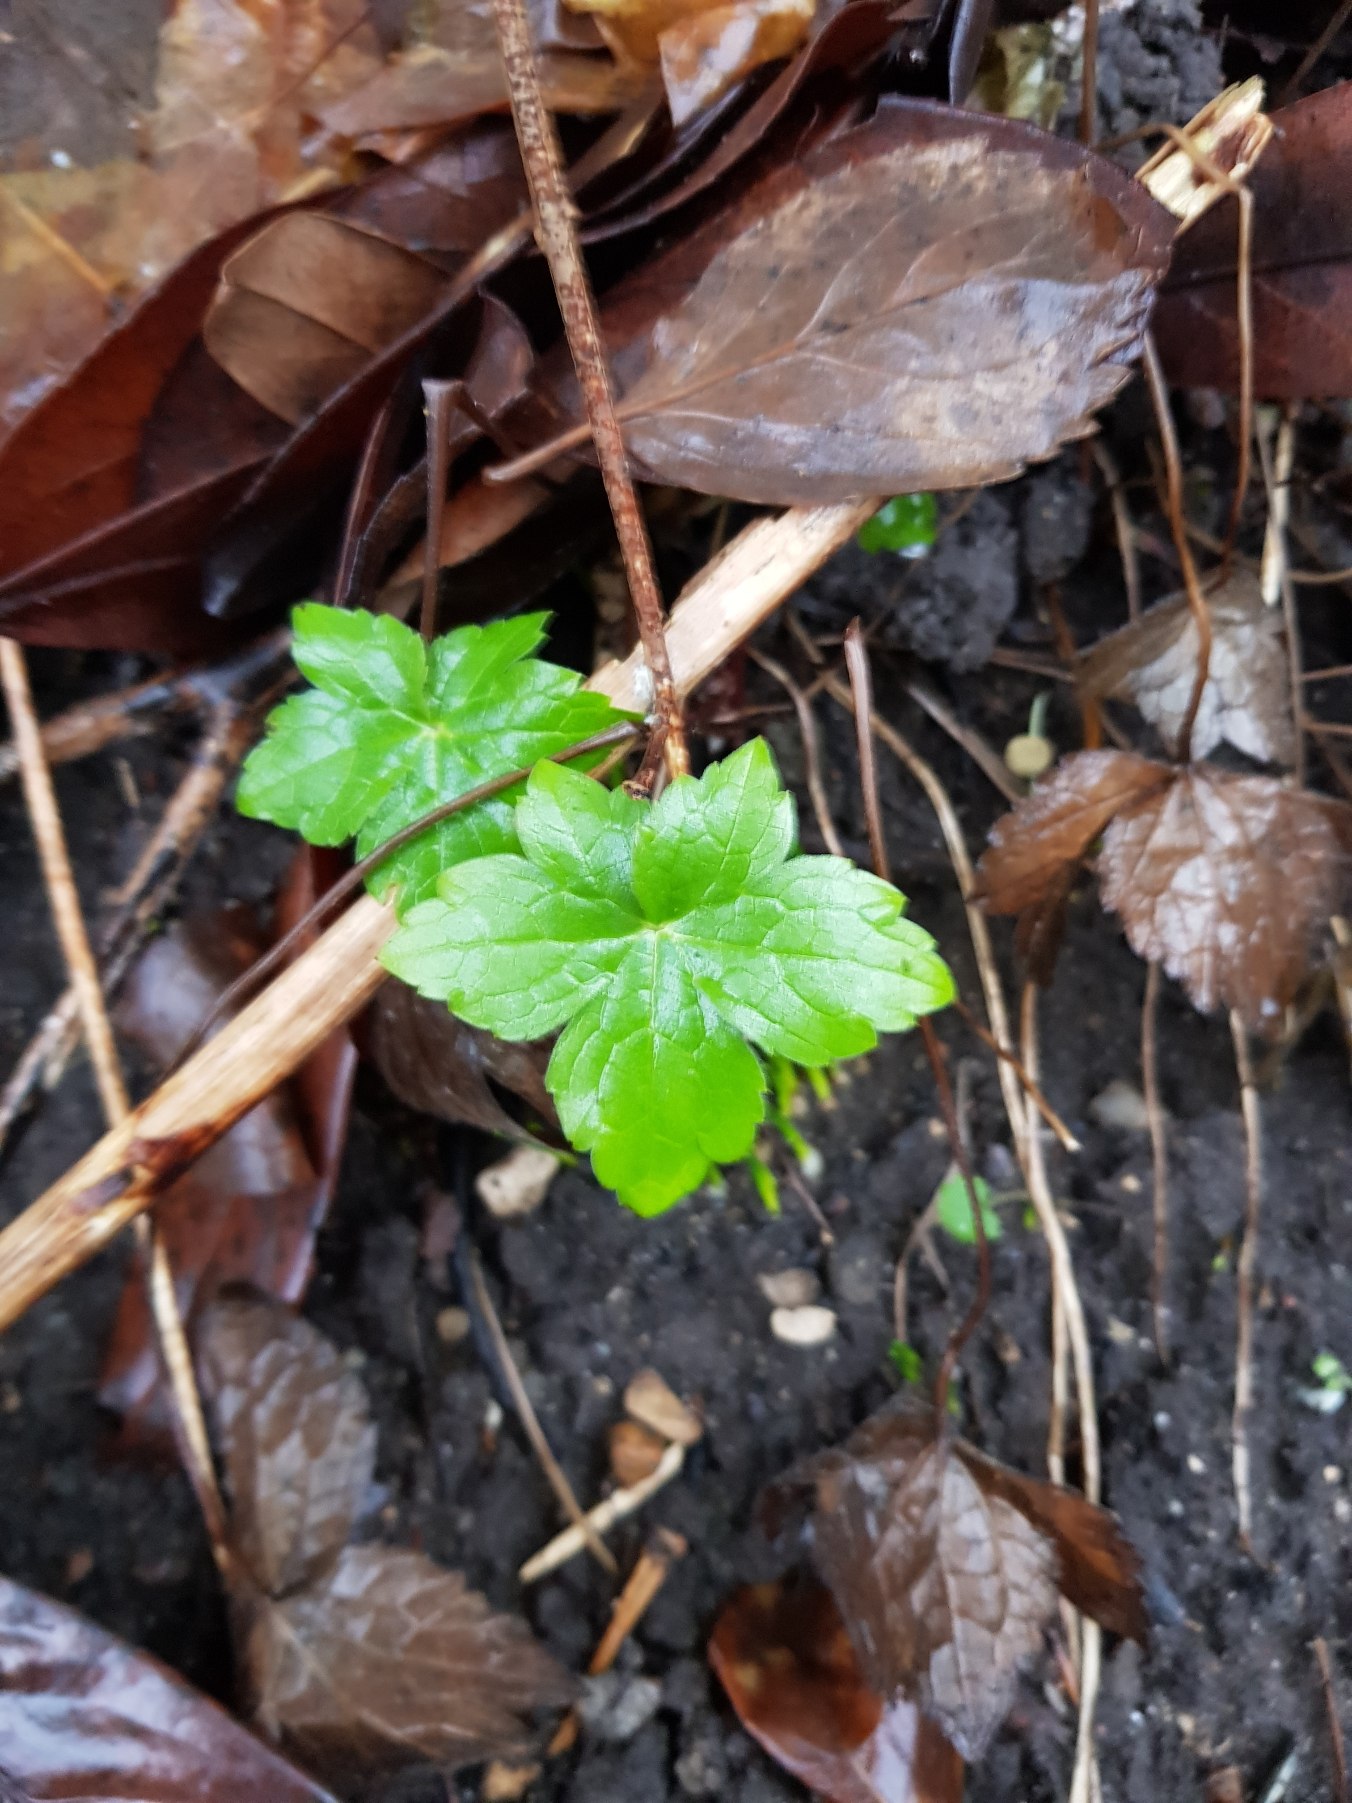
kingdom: Plantae
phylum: Tracheophyta
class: Magnoliopsida
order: Geraniales
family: Geraniaceae
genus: Geranium
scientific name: Geranium nodosum
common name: Knudret storkenæb
